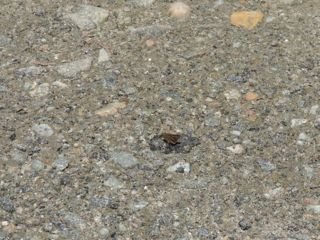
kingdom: Animalia
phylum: Arthropoda
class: Insecta
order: Lepidoptera
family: Hesperiidae
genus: Polites
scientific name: Polites themistocles
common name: Tawny-edged Skipper
